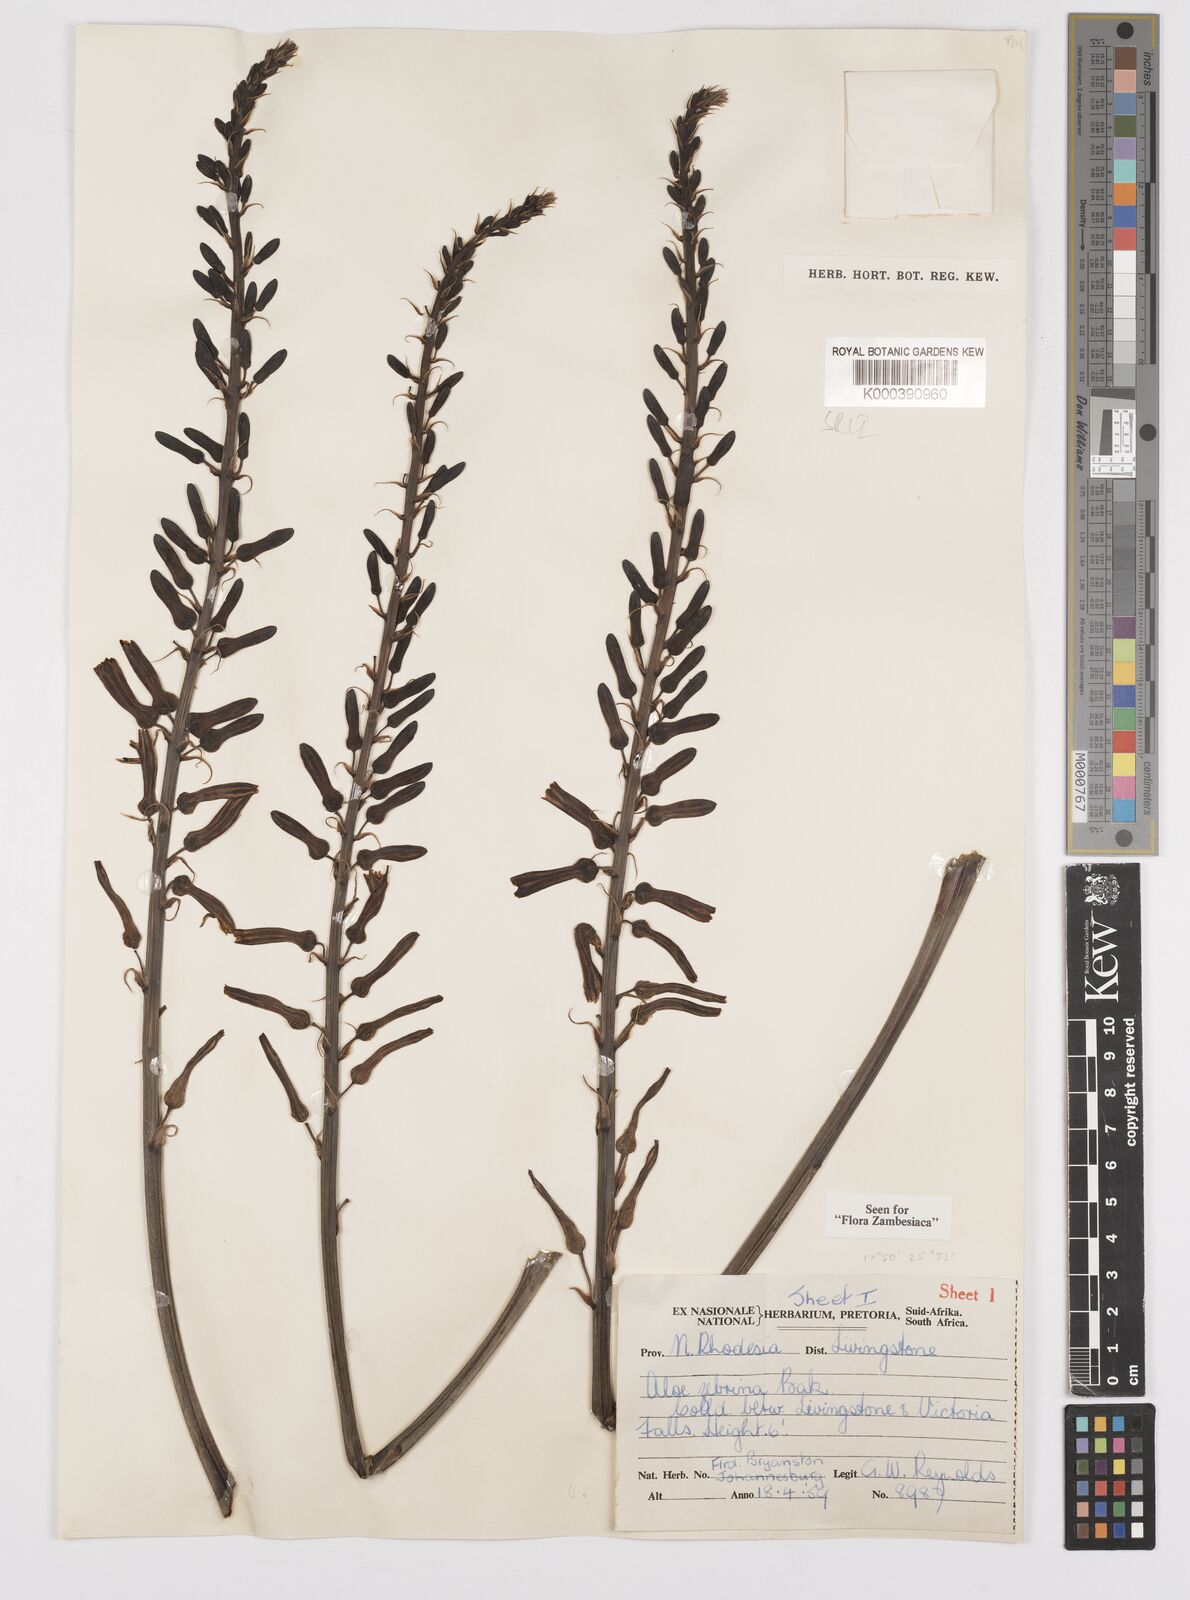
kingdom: Plantae
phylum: Tracheophyta
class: Liliopsida
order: Asparagales
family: Asphodelaceae
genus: Aloe
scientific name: Aloe zebrina
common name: Zebra-leaf aloe
